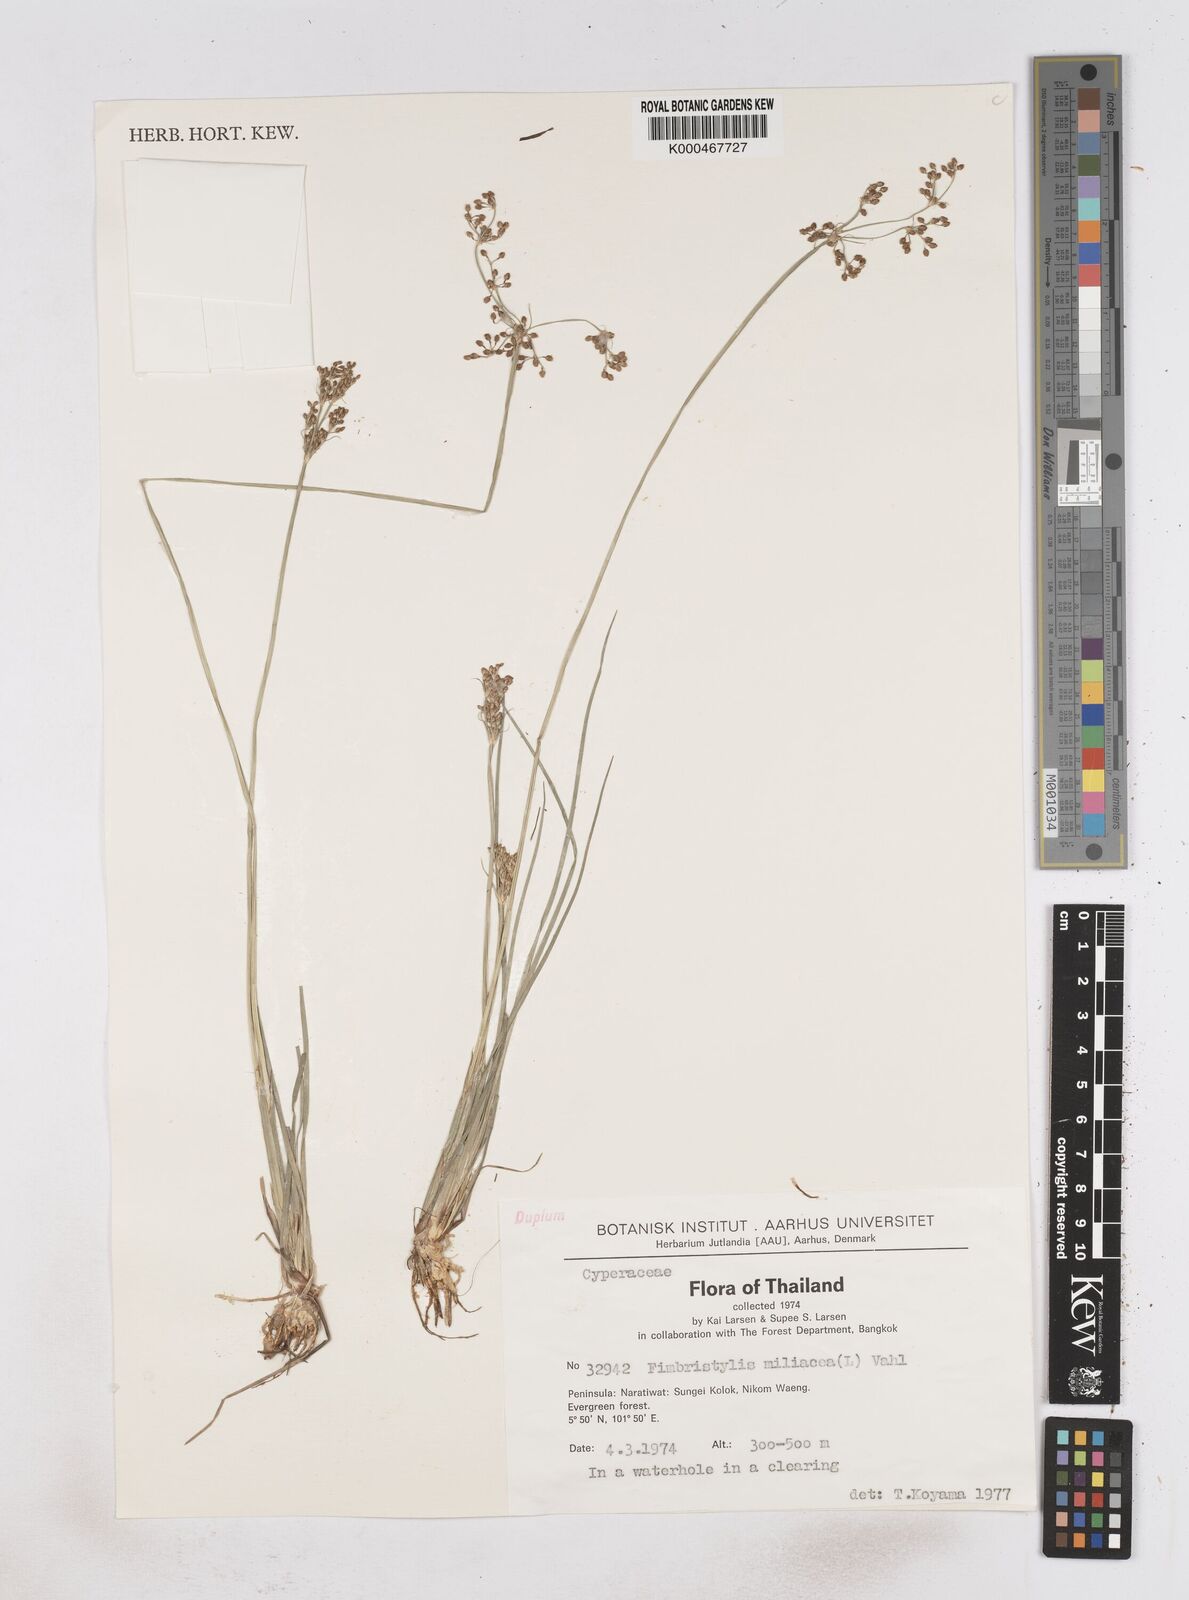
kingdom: Plantae
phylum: Tracheophyta
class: Liliopsida
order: Poales
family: Cyperaceae
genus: Fimbristylis
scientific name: Fimbristylis quinquangularis
